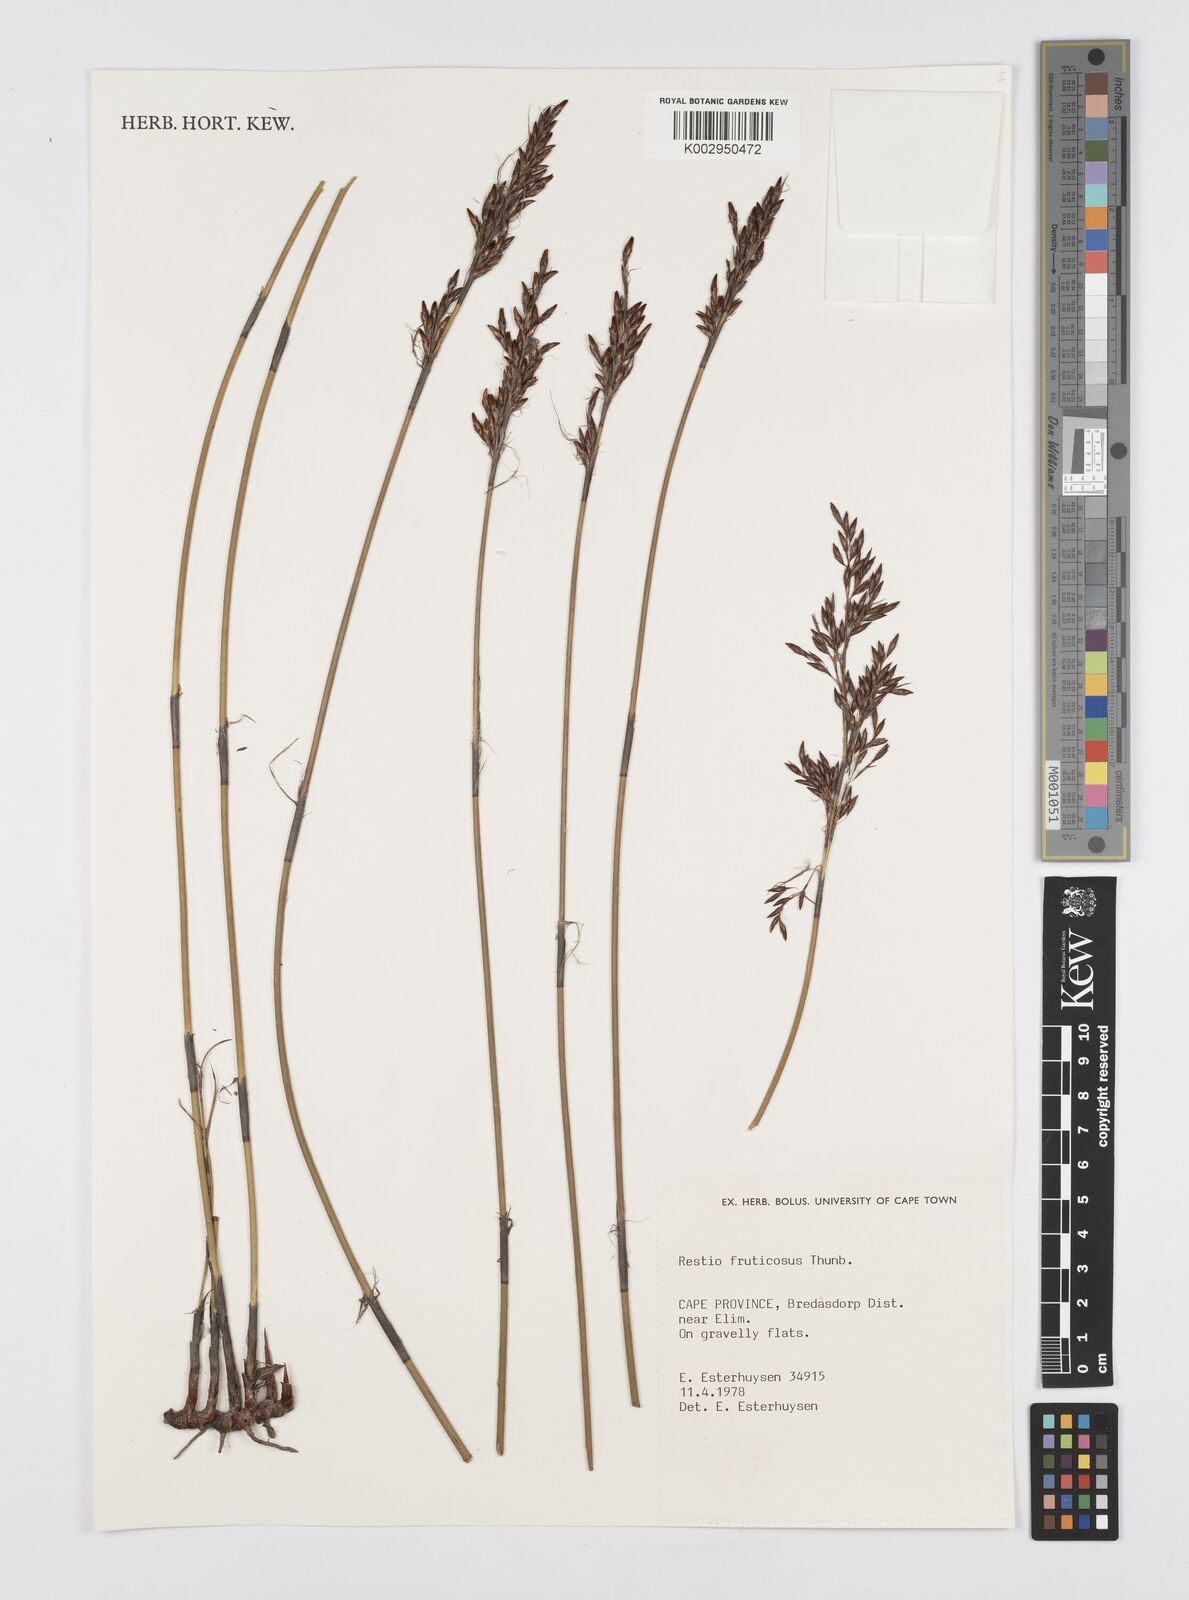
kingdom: Plantae
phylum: Tracheophyta
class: Liliopsida
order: Poales
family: Restionaceae
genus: Rhodocoma
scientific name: Rhodocoma fruticosa
